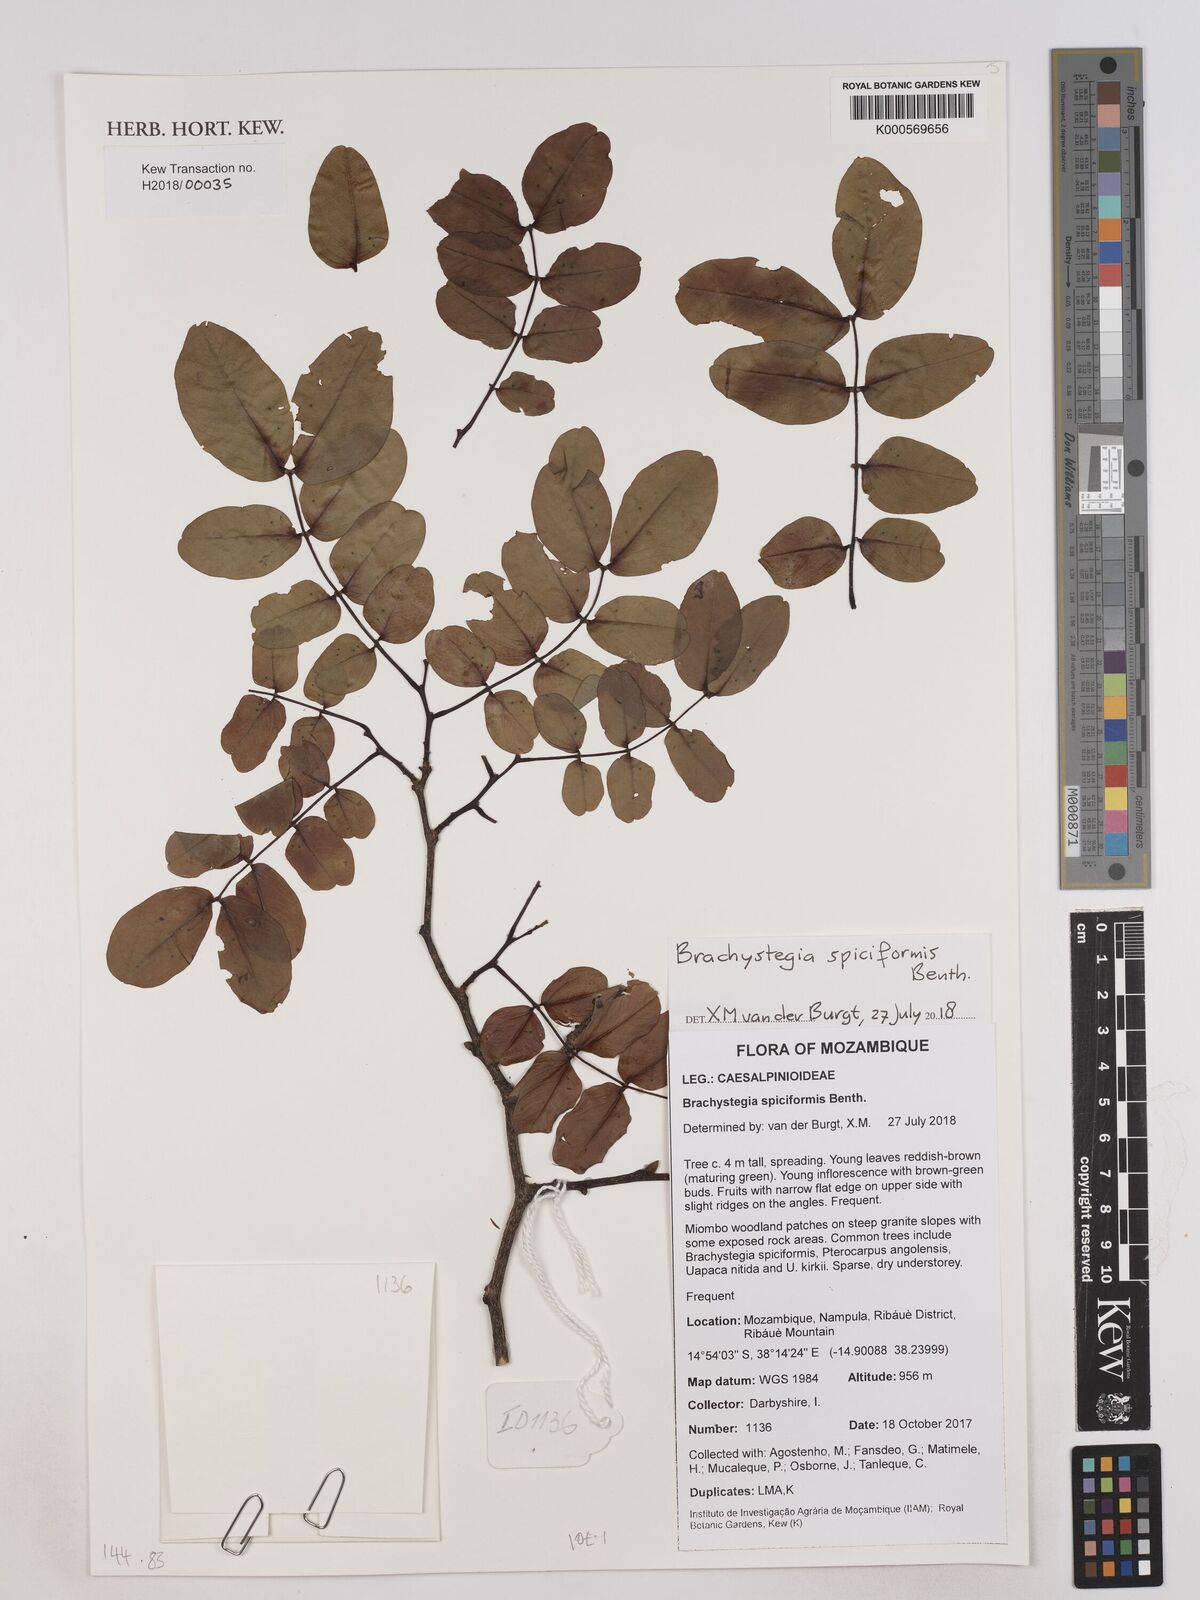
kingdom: Plantae
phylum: Tracheophyta
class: Magnoliopsida
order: Fabales
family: Fabaceae
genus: Brachystegia
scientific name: Brachystegia spiciformis
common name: Zebrawood
